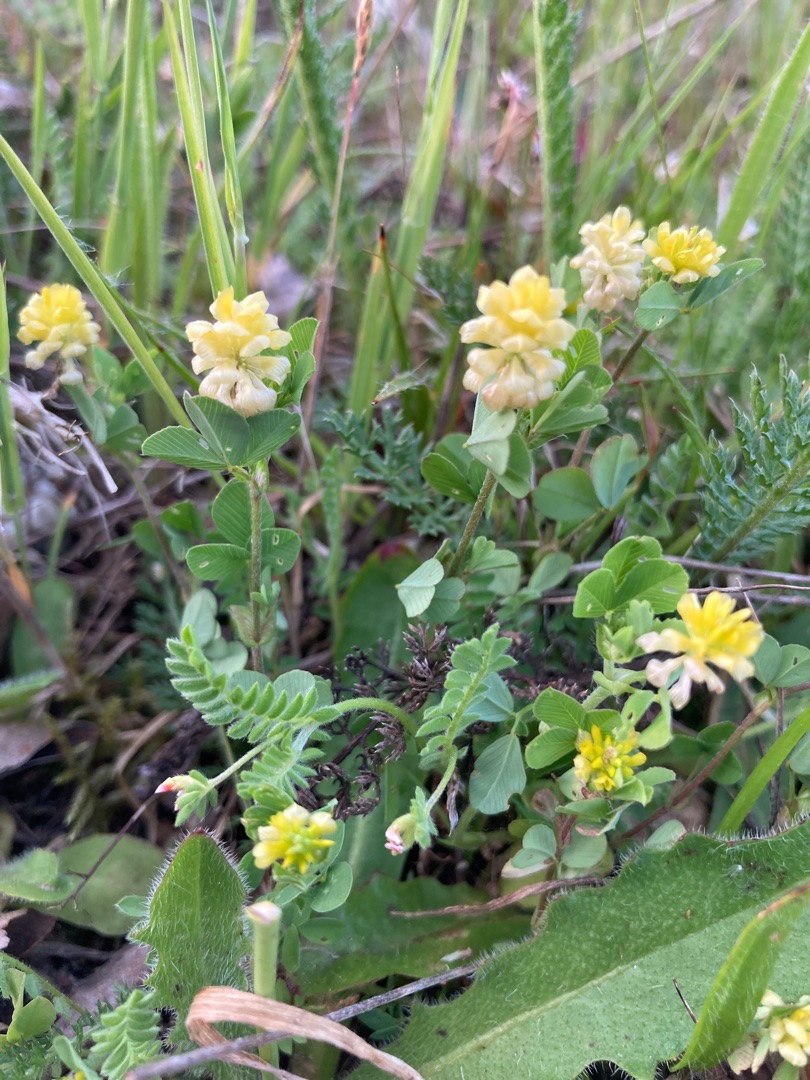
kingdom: Plantae
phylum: Tracheophyta
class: Magnoliopsida
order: Fabales
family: Fabaceae
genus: Trifolium
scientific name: Trifolium campestre
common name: Gul kløver
